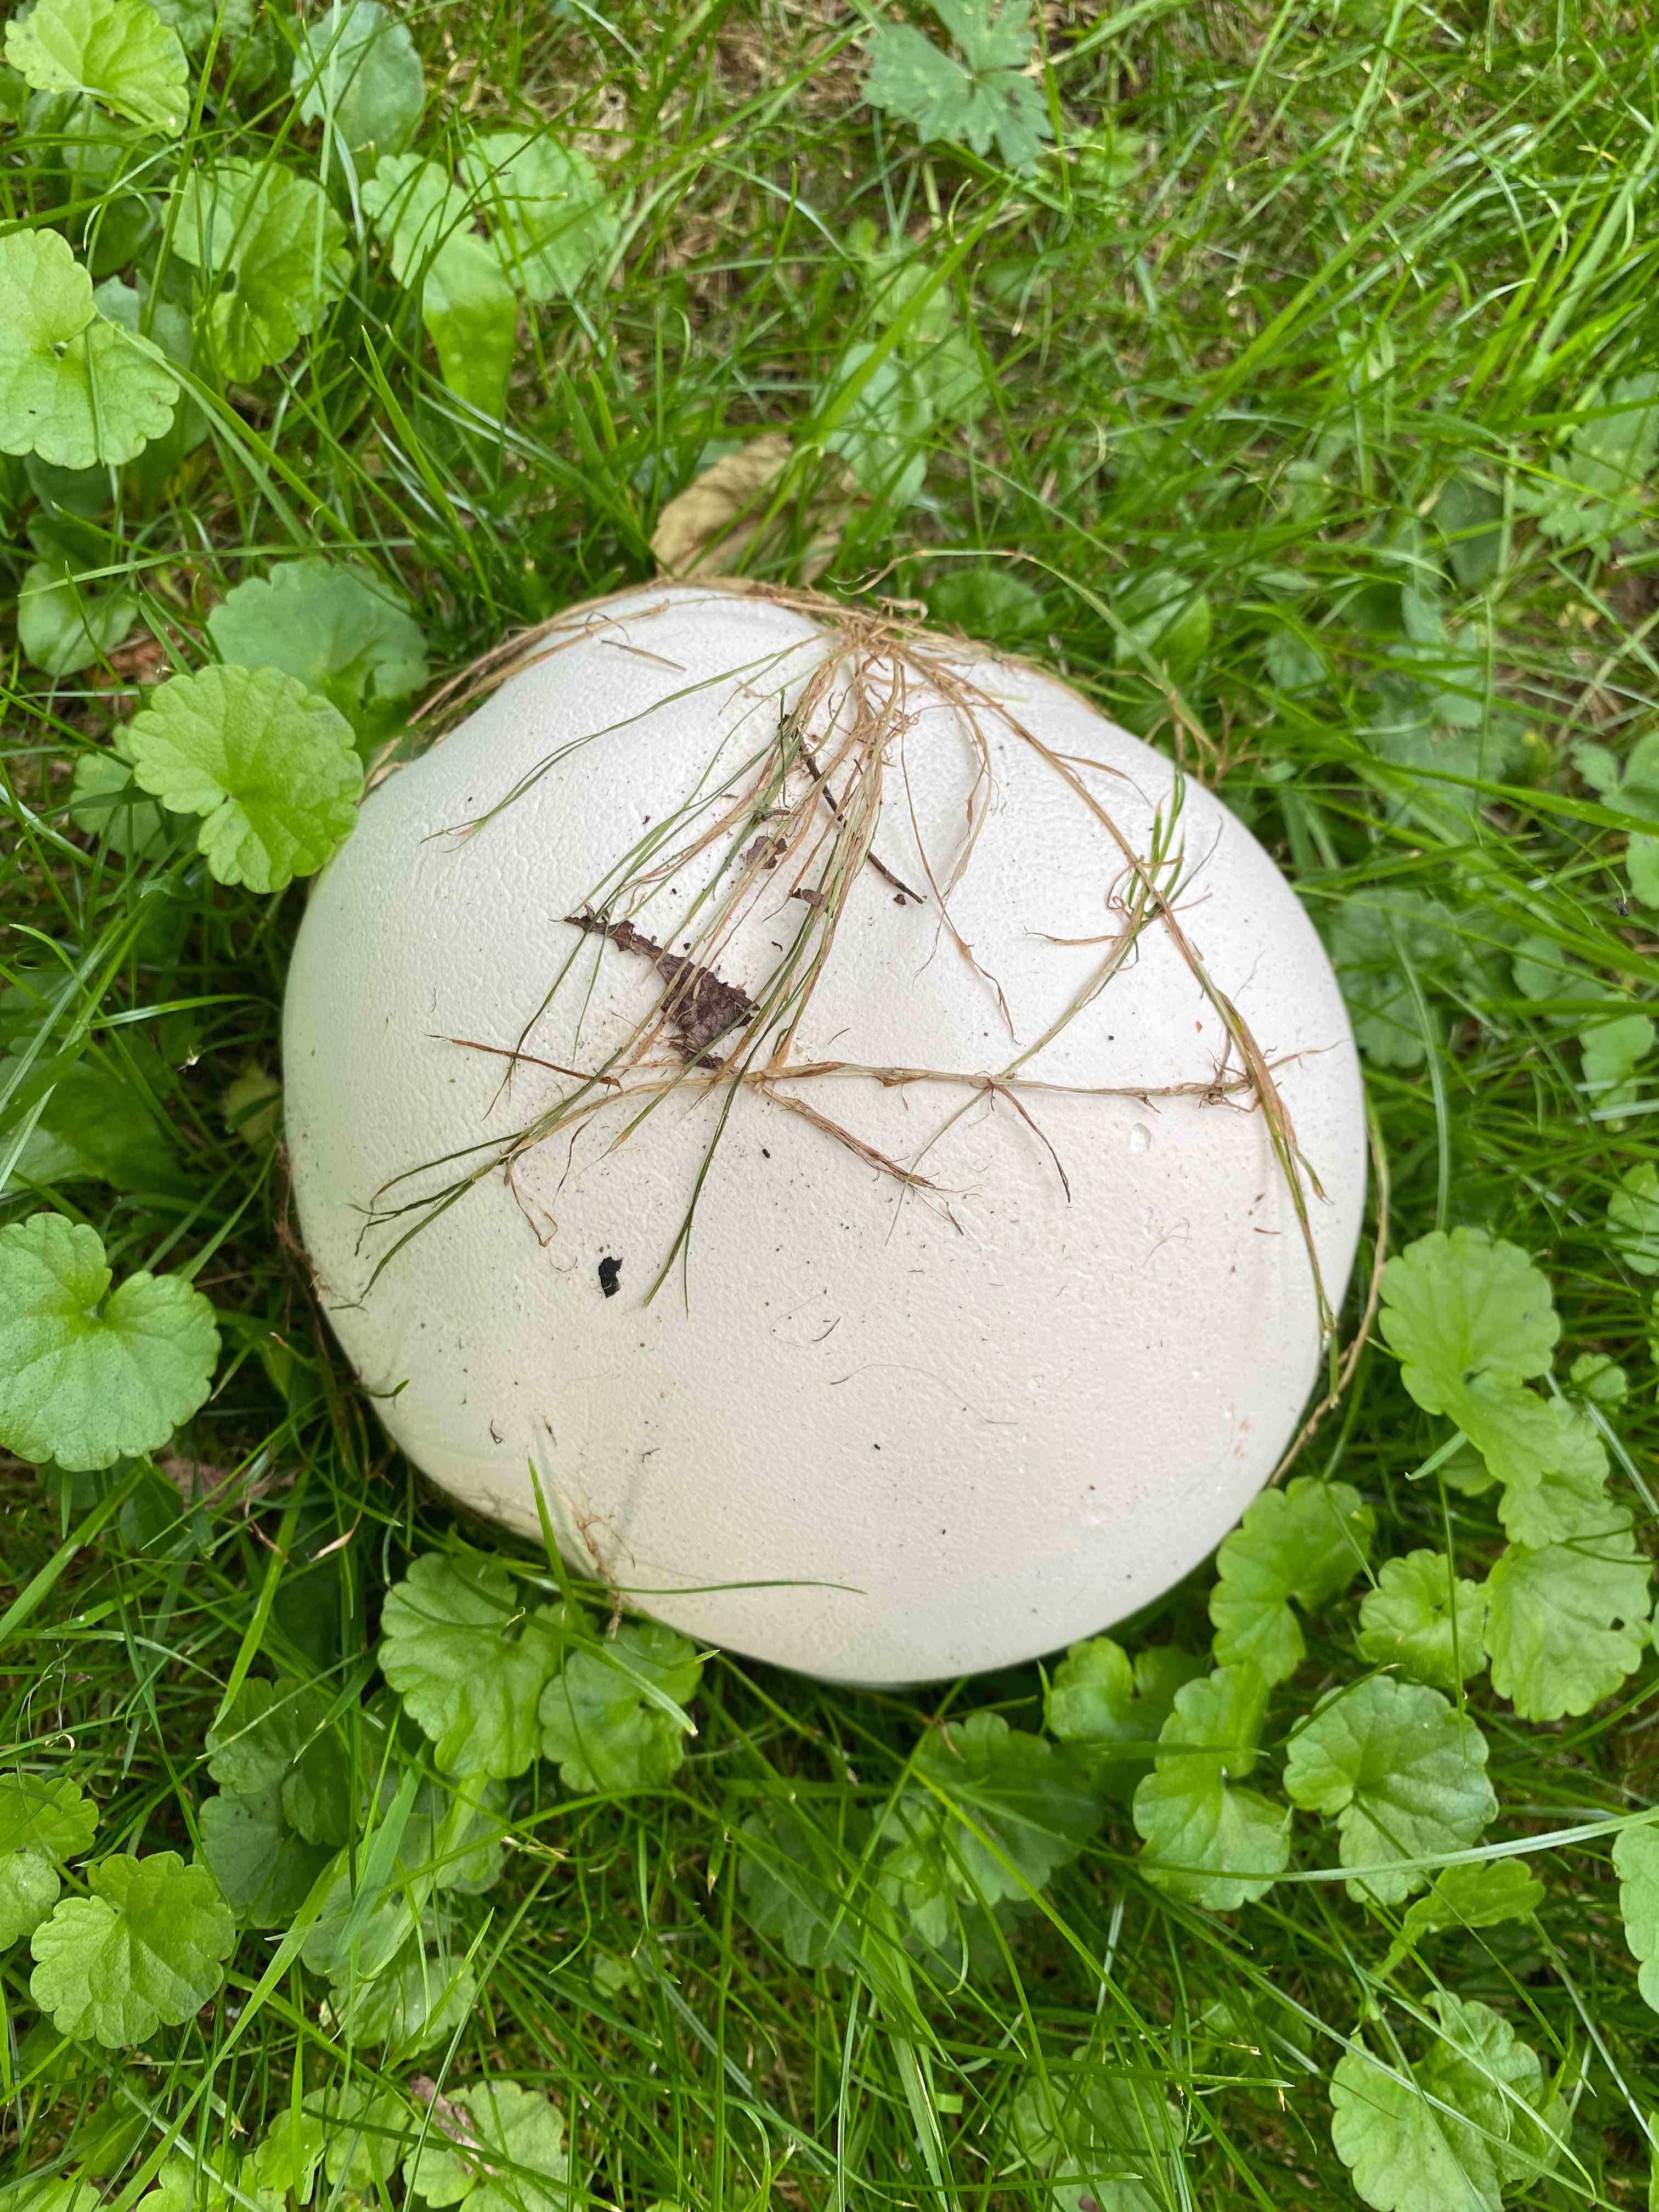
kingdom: Fungi
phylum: Basidiomycota
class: Agaricomycetes
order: Agaricales
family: Lycoperdaceae
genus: Calvatia
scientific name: Calvatia gigantea
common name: kæmpestøvbold
